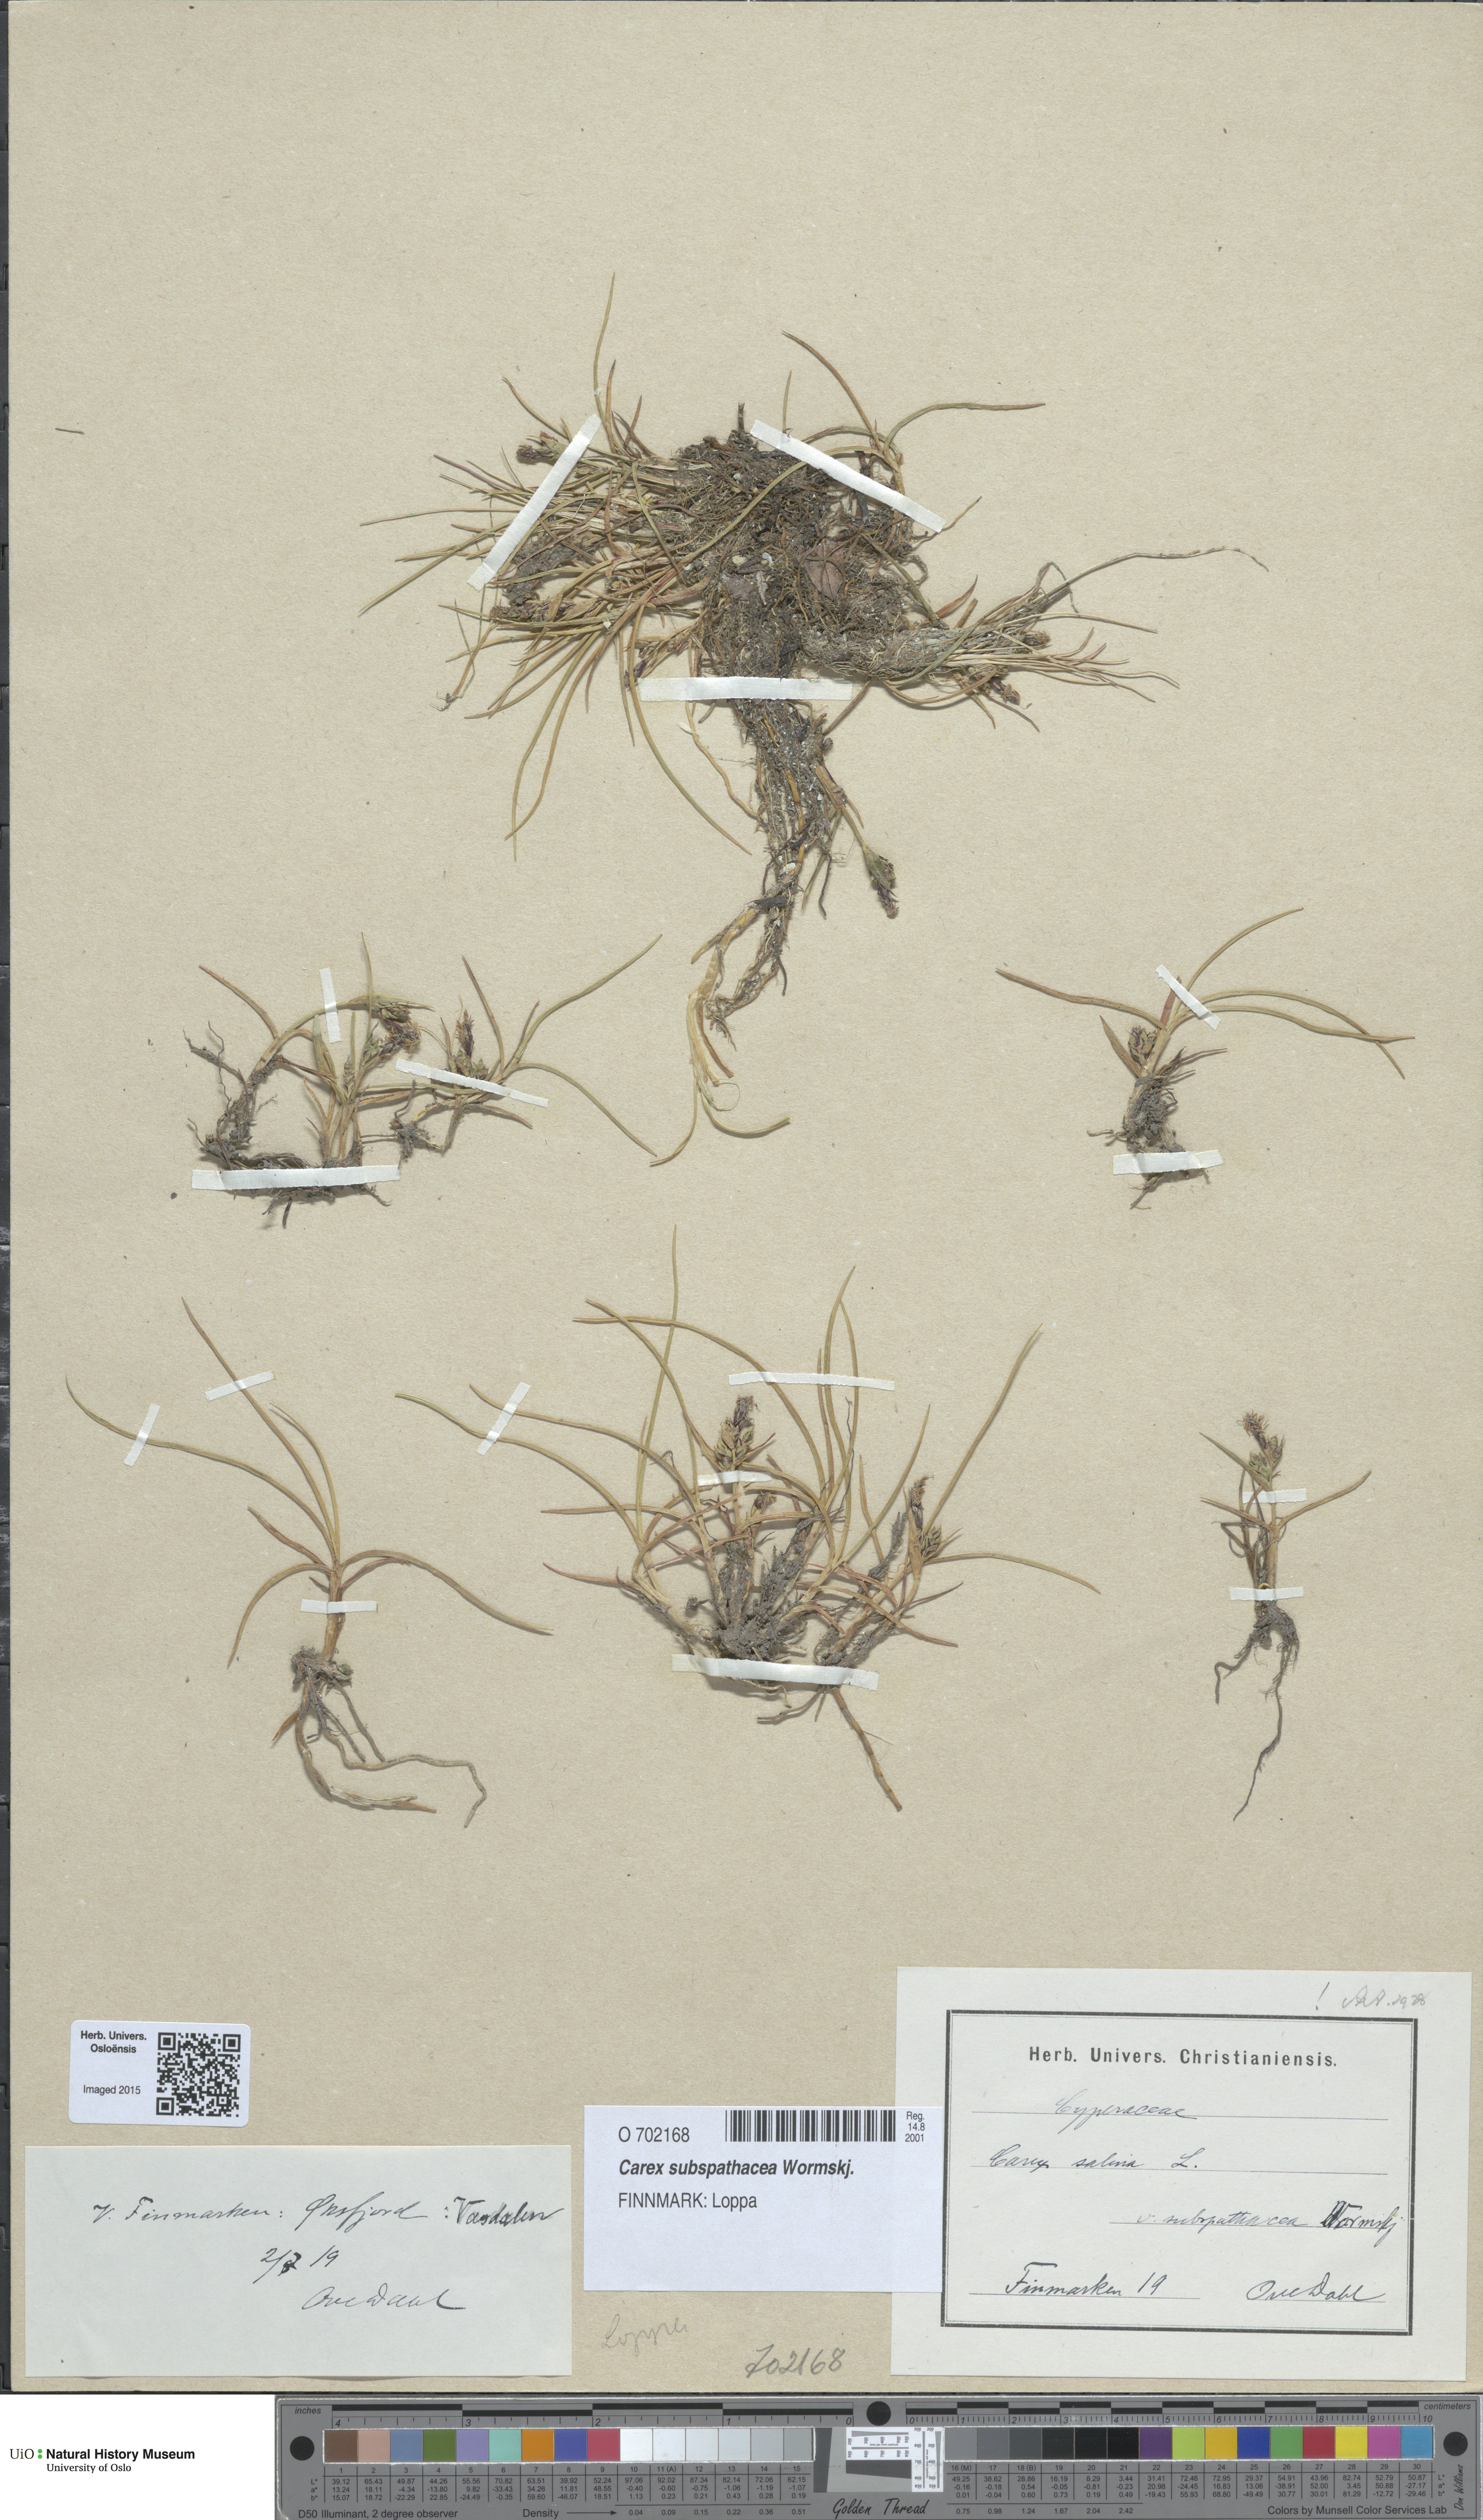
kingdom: Plantae
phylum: Tracheophyta
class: Liliopsida
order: Poales
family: Cyperaceae
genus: Carex
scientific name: Carex subspathacea
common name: Hoppner's sedge
